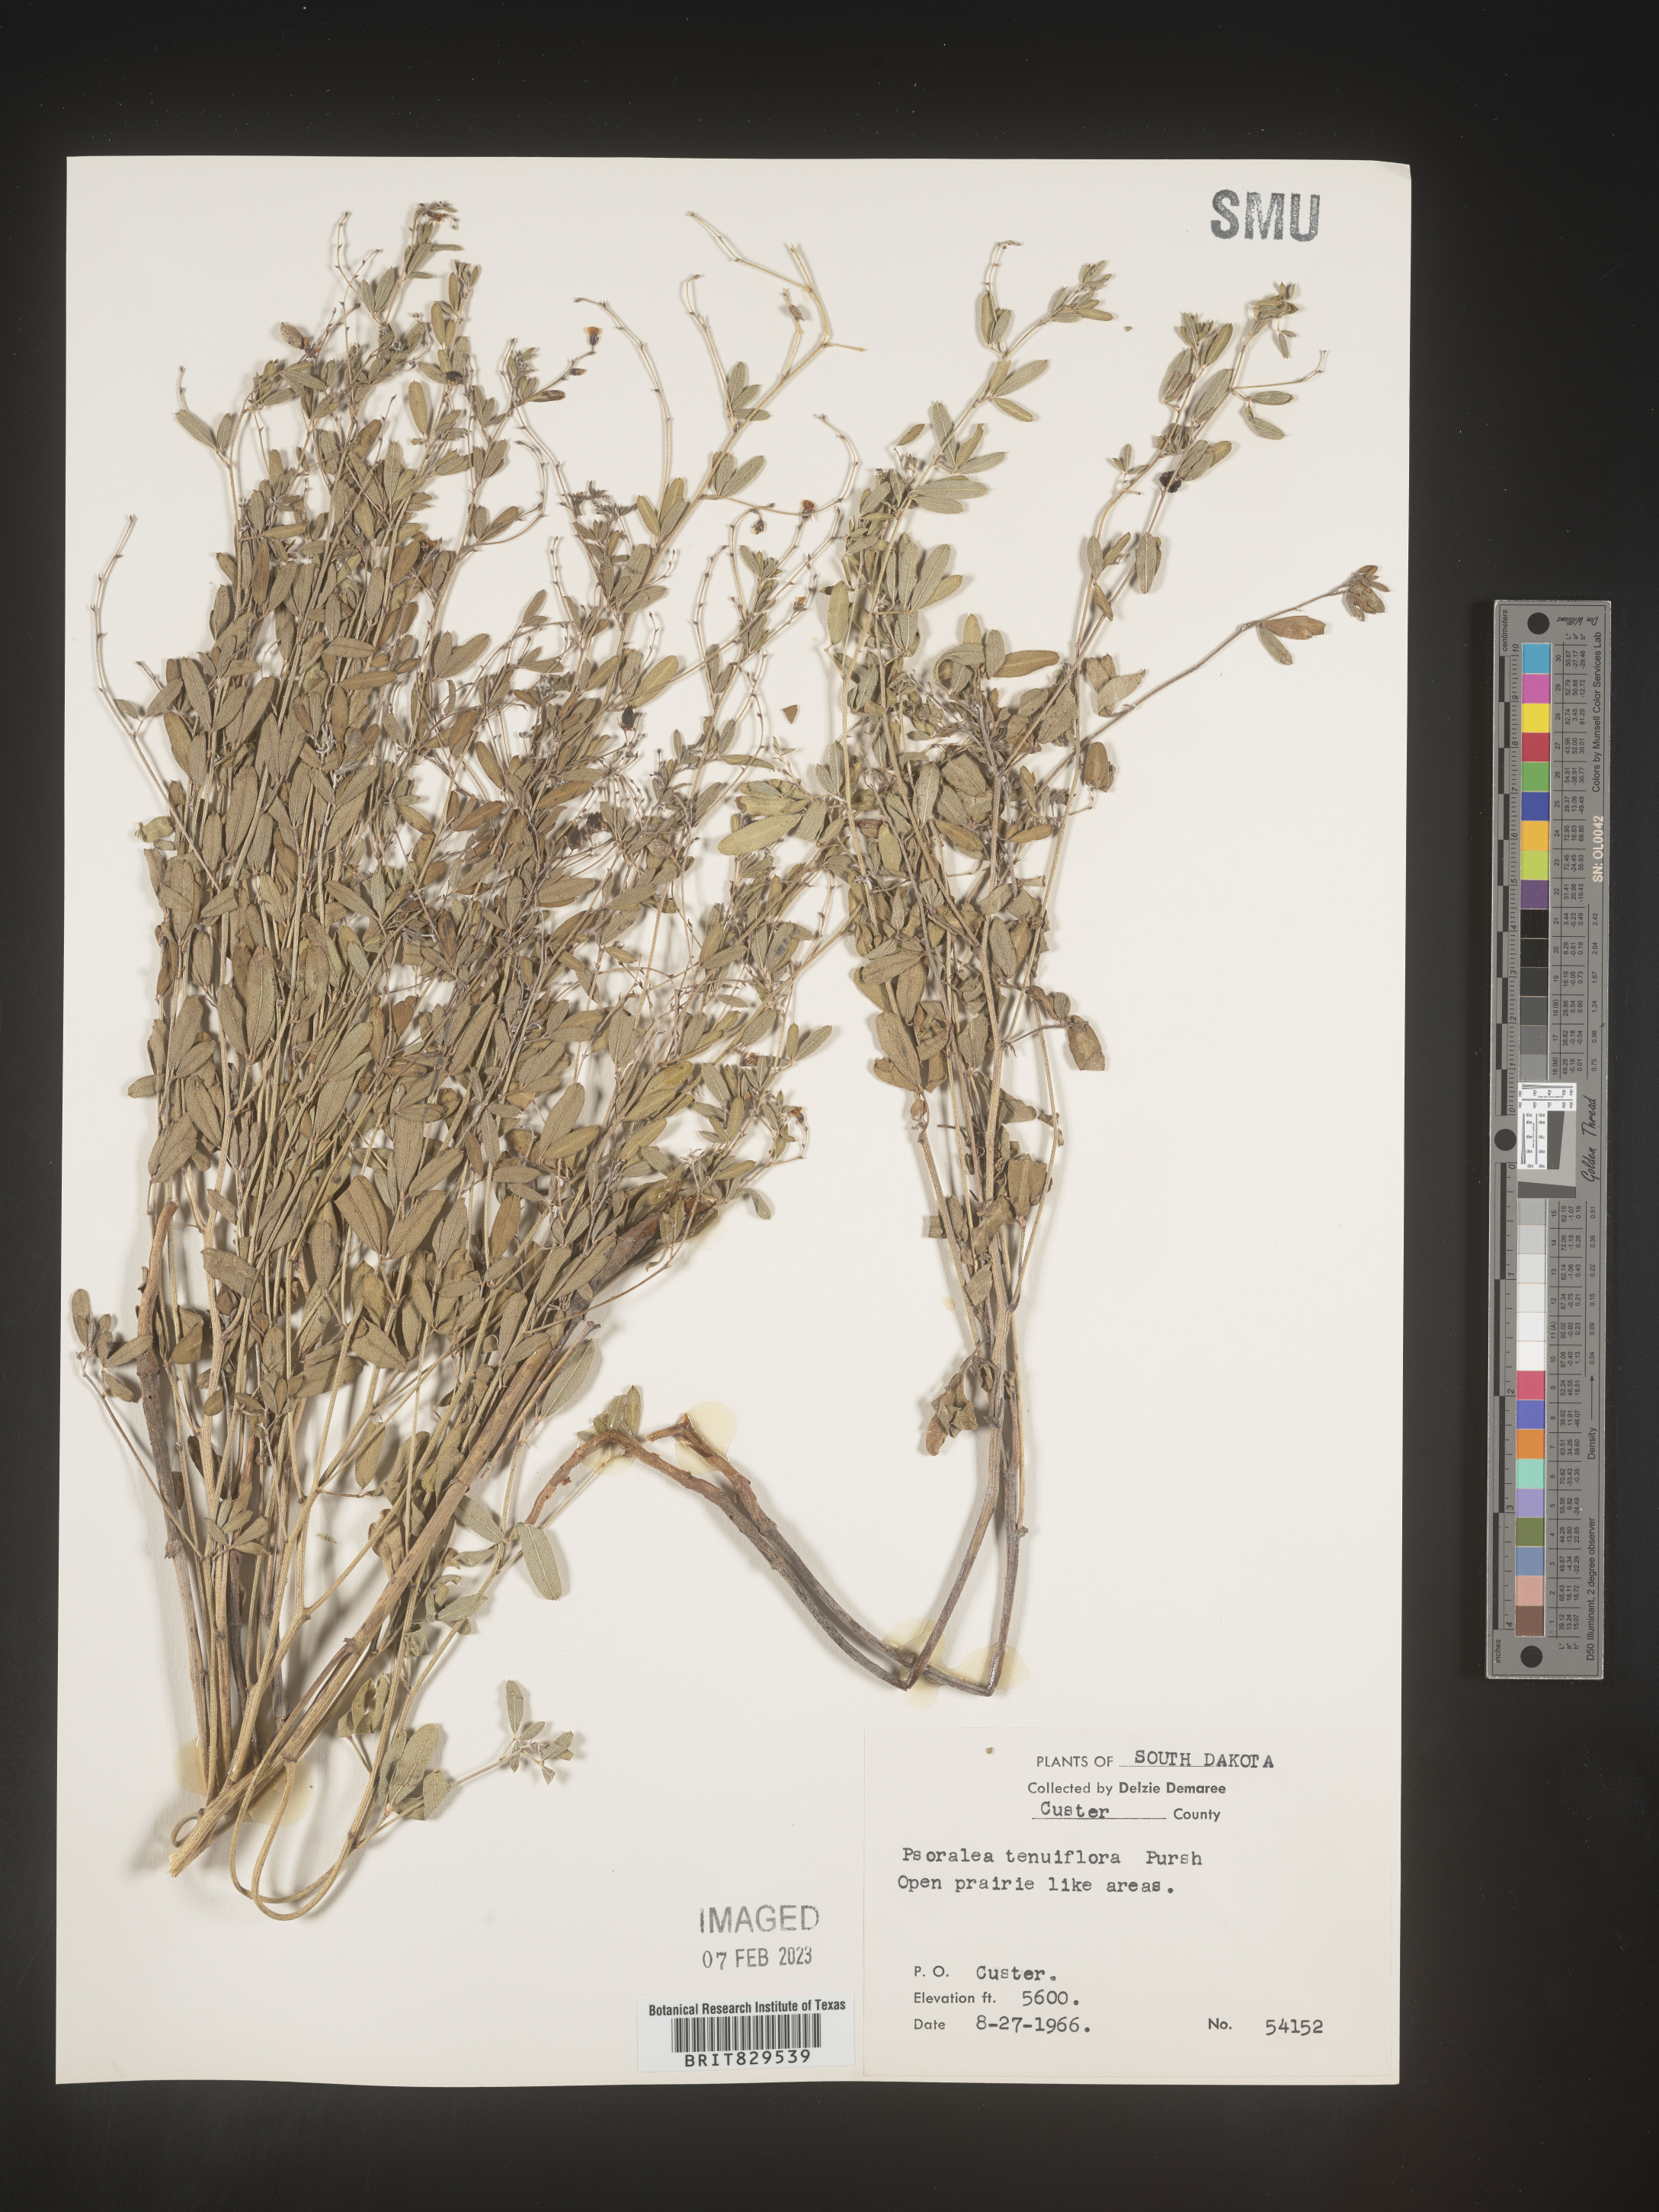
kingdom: Plantae
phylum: Tracheophyta
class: Magnoliopsida
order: Fabales
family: Fabaceae
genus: Pediomelum
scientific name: Pediomelum tenuiflorum
